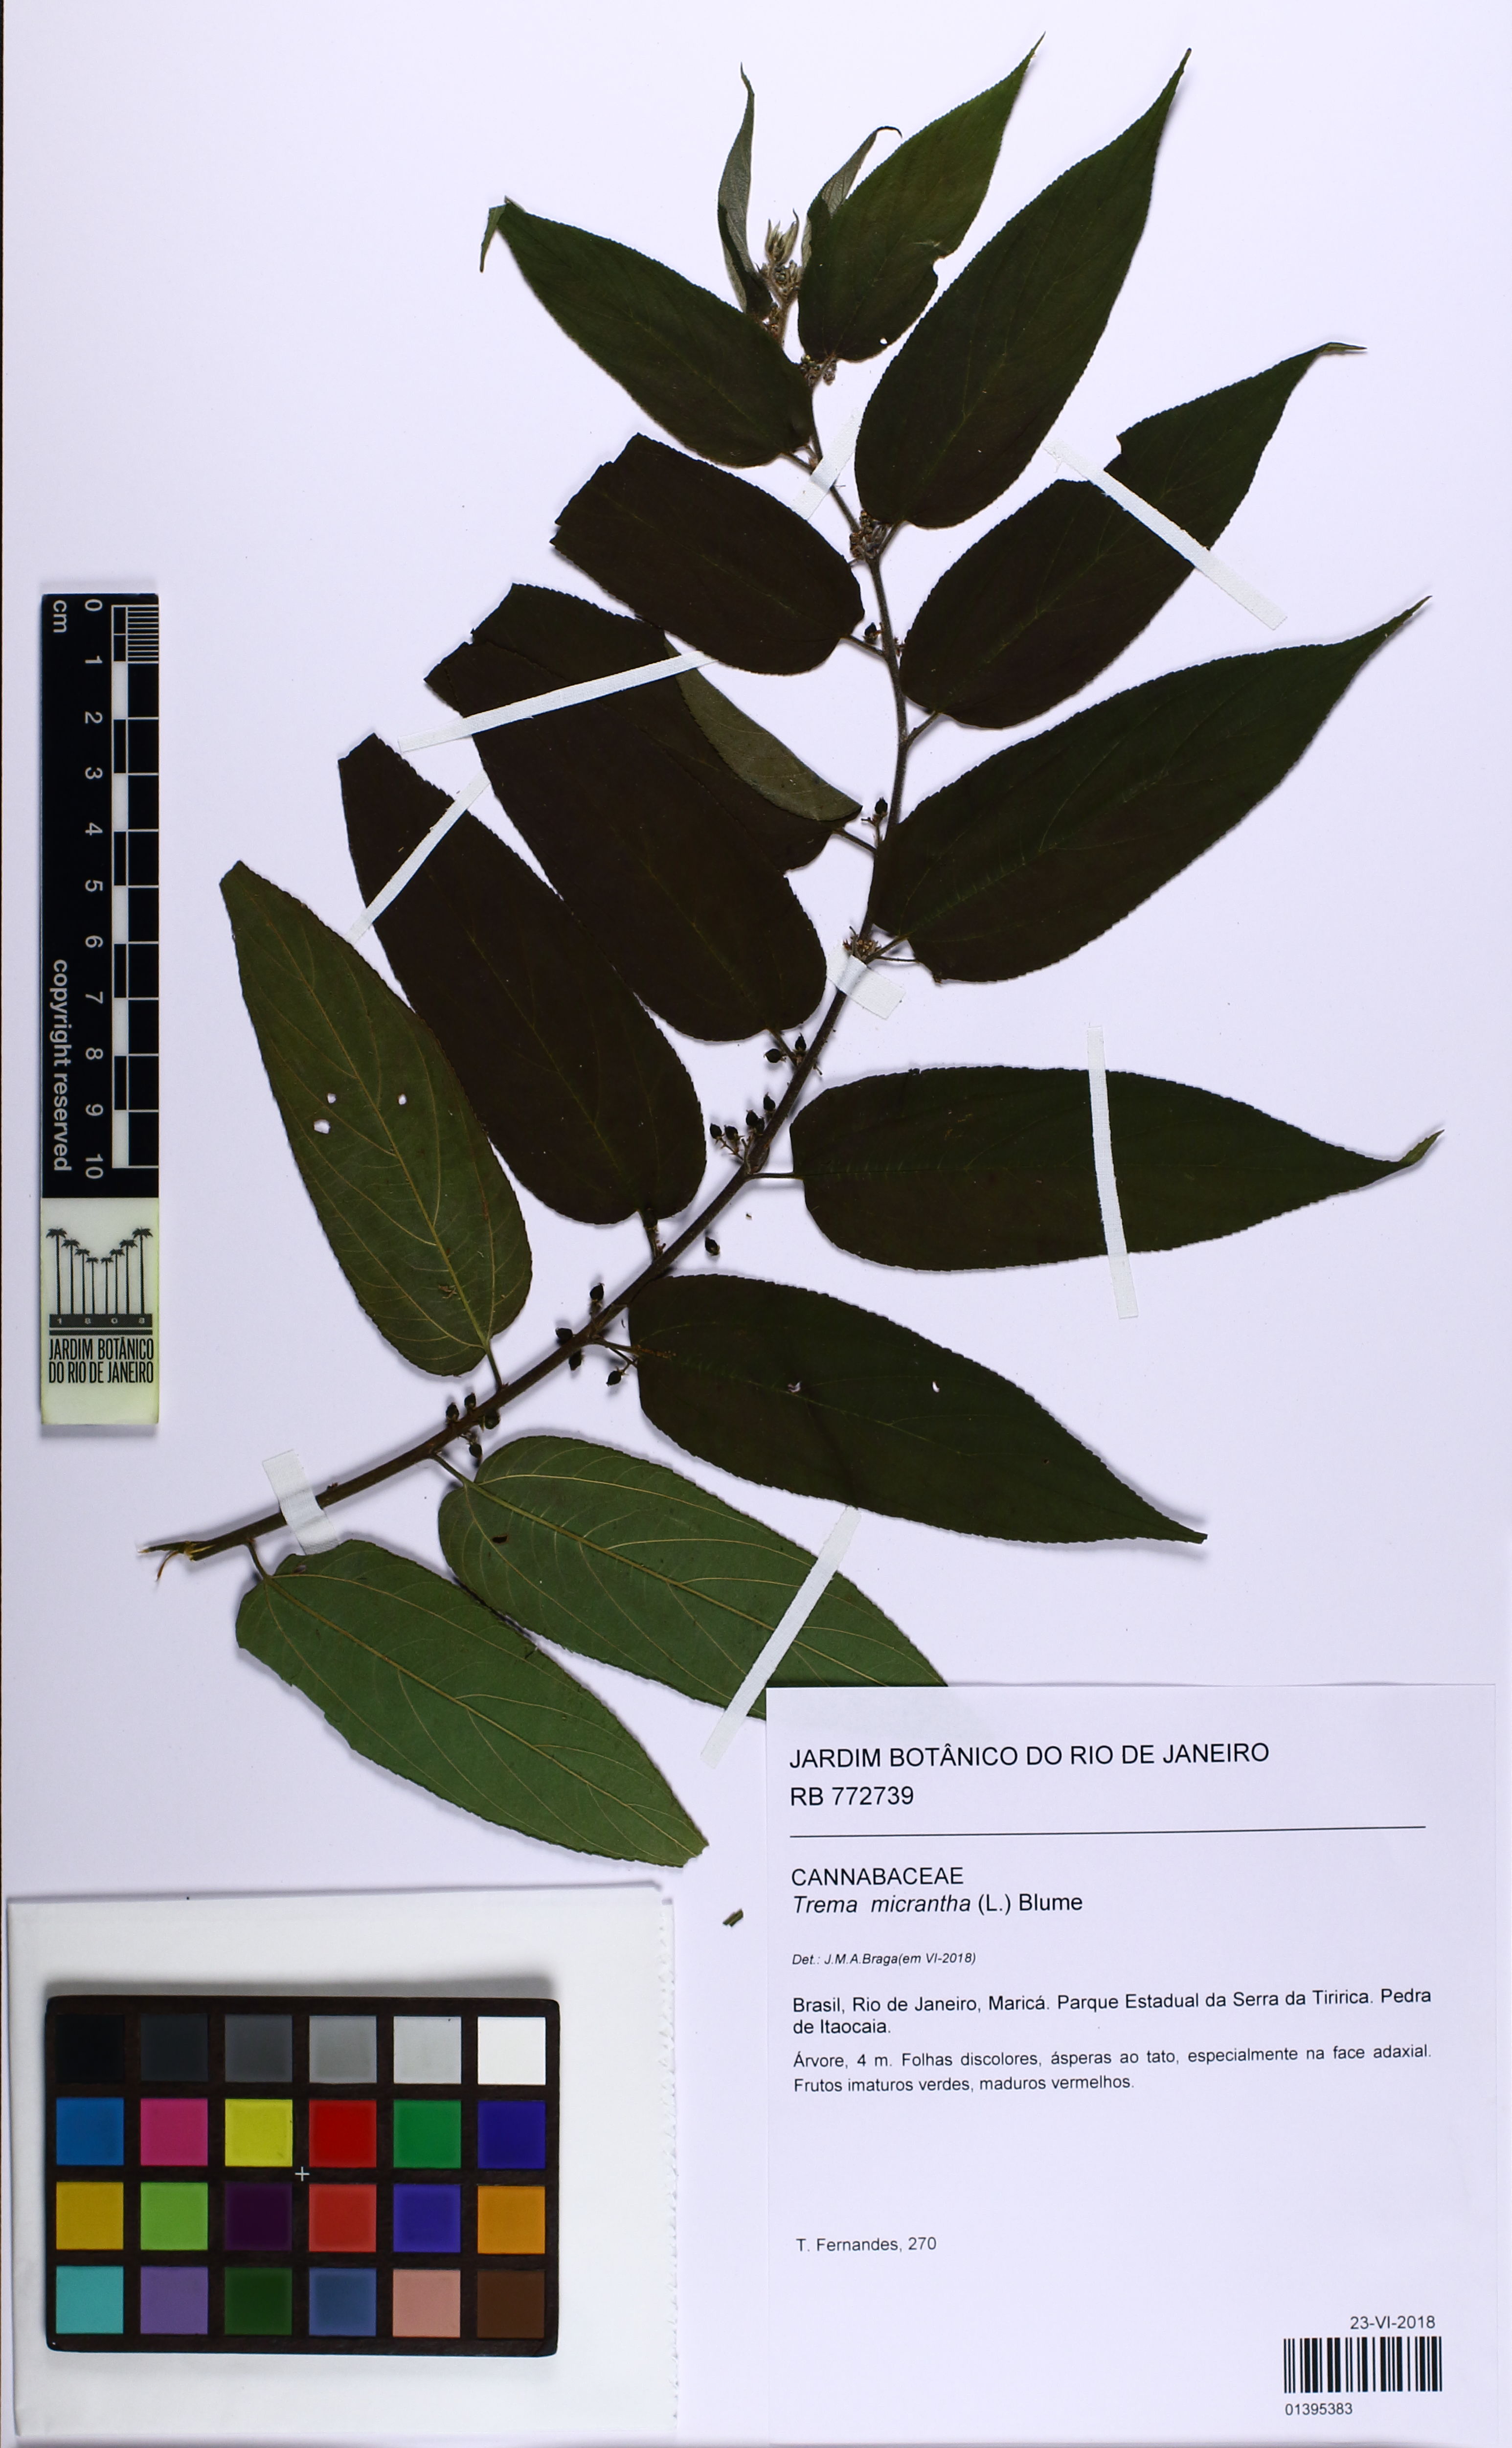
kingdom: Plantae
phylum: Tracheophyta
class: Magnoliopsida
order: Rosales
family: Cannabaceae
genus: Trema
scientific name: Trema micranthum
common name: Jamaican nettletree
